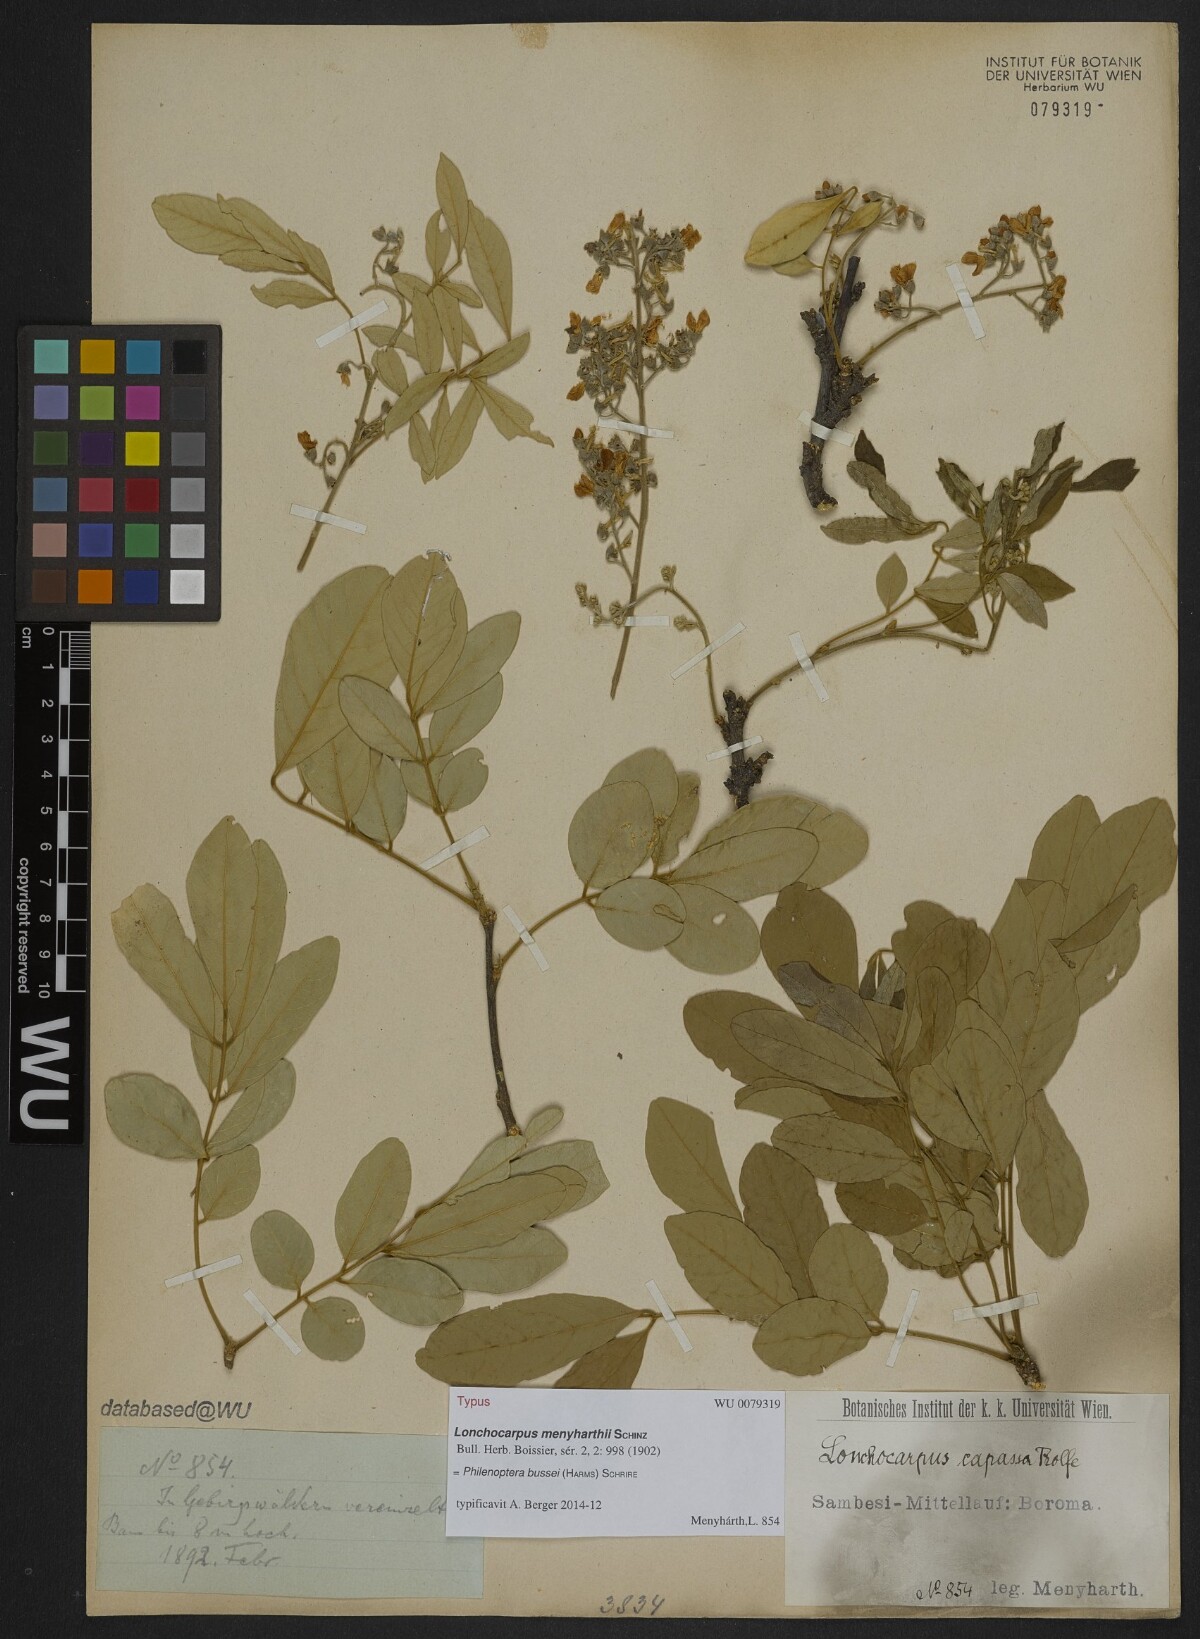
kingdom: Plantae
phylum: Tracheophyta
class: Magnoliopsida
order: Fabales
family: Fabaceae
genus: Philenoptera
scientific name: Philenoptera bussei
